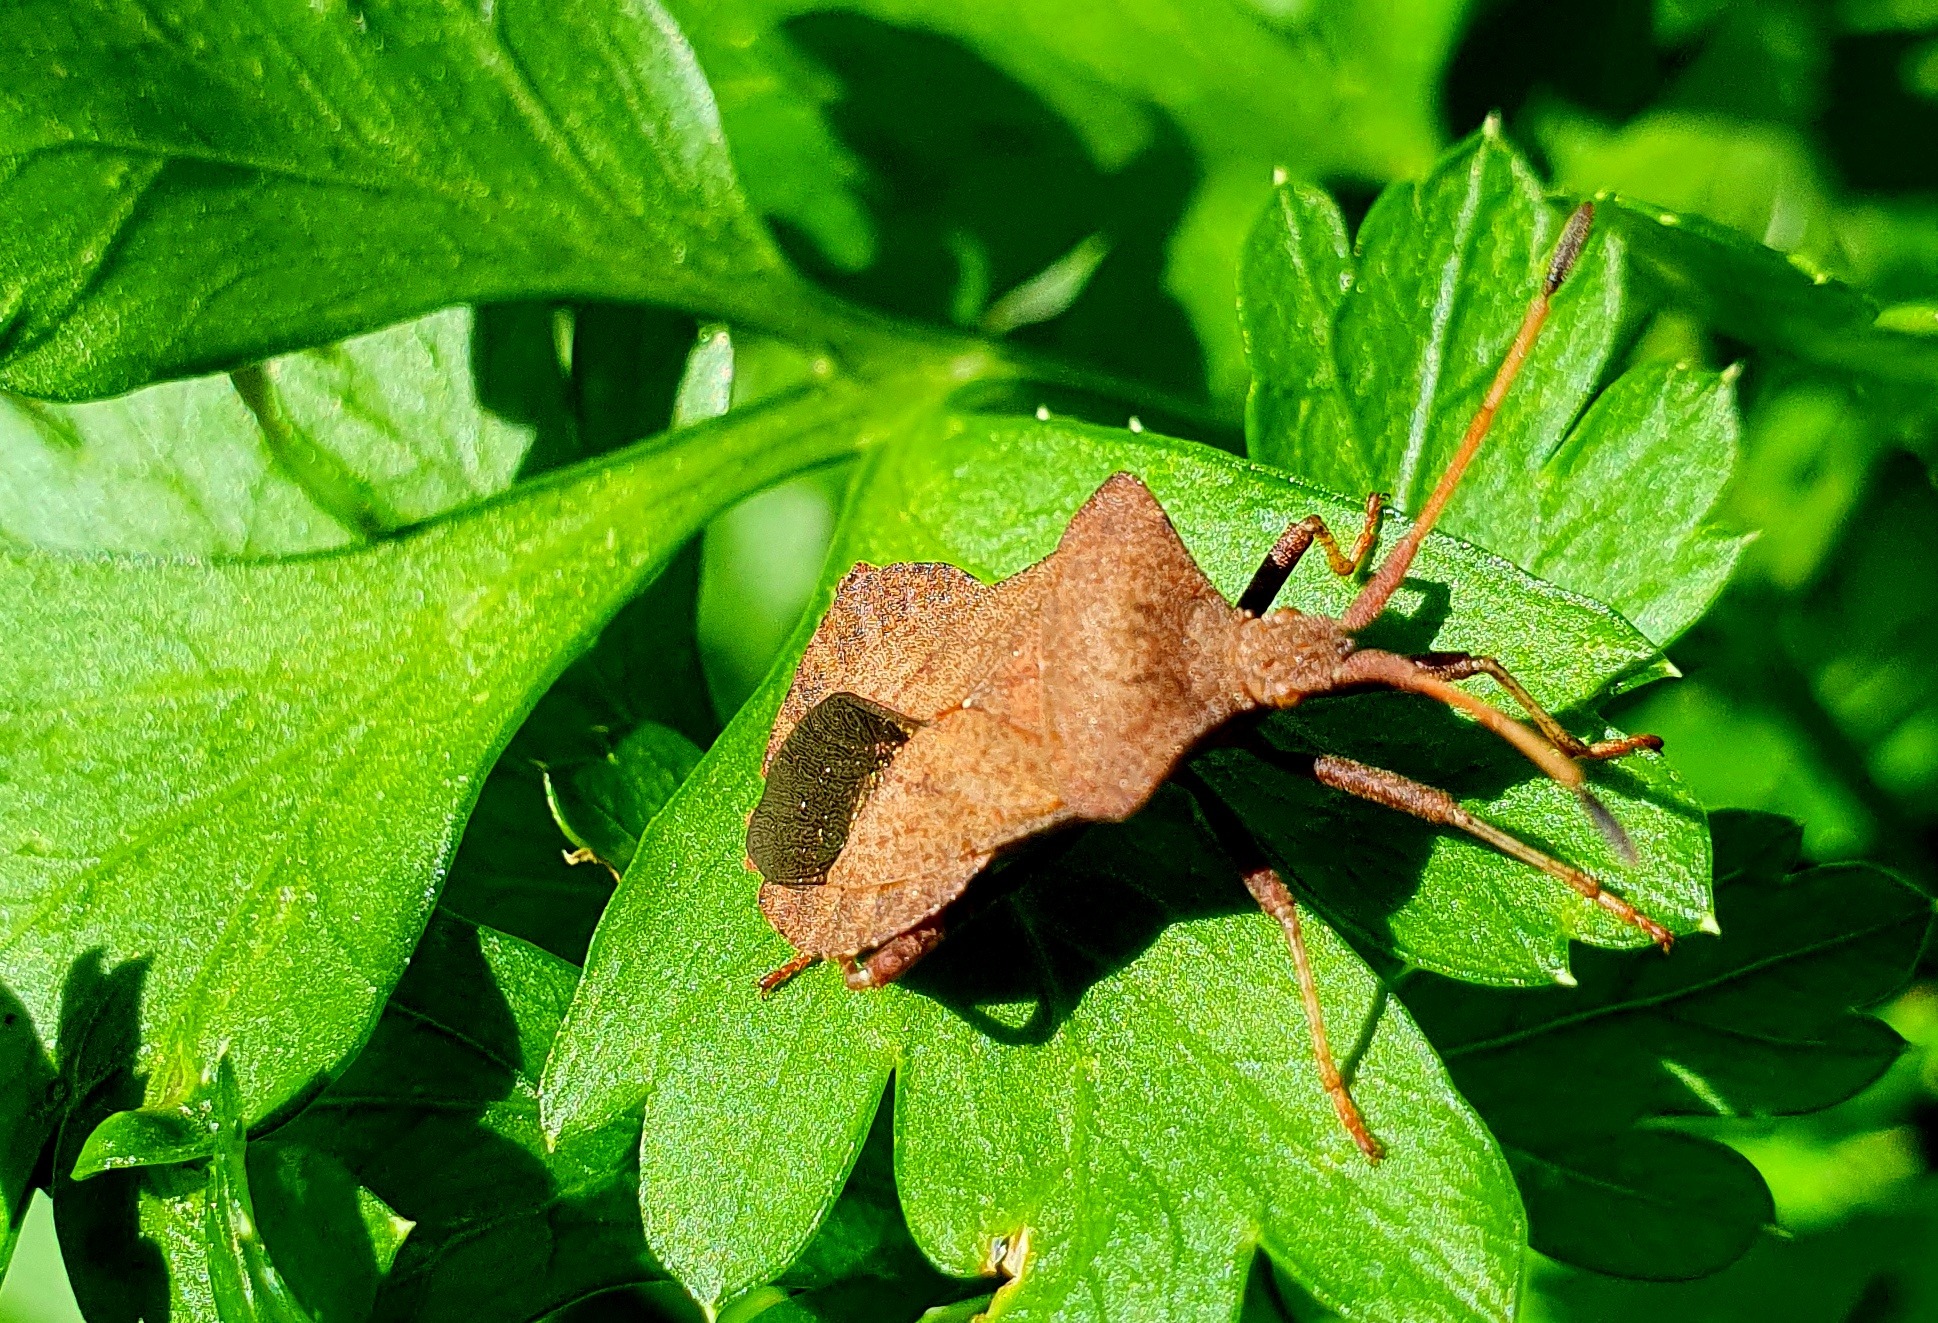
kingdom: Animalia
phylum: Arthropoda
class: Insecta
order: Hemiptera
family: Coreidae
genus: Coreus
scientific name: Coreus marginatus
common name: Skræppetæge
